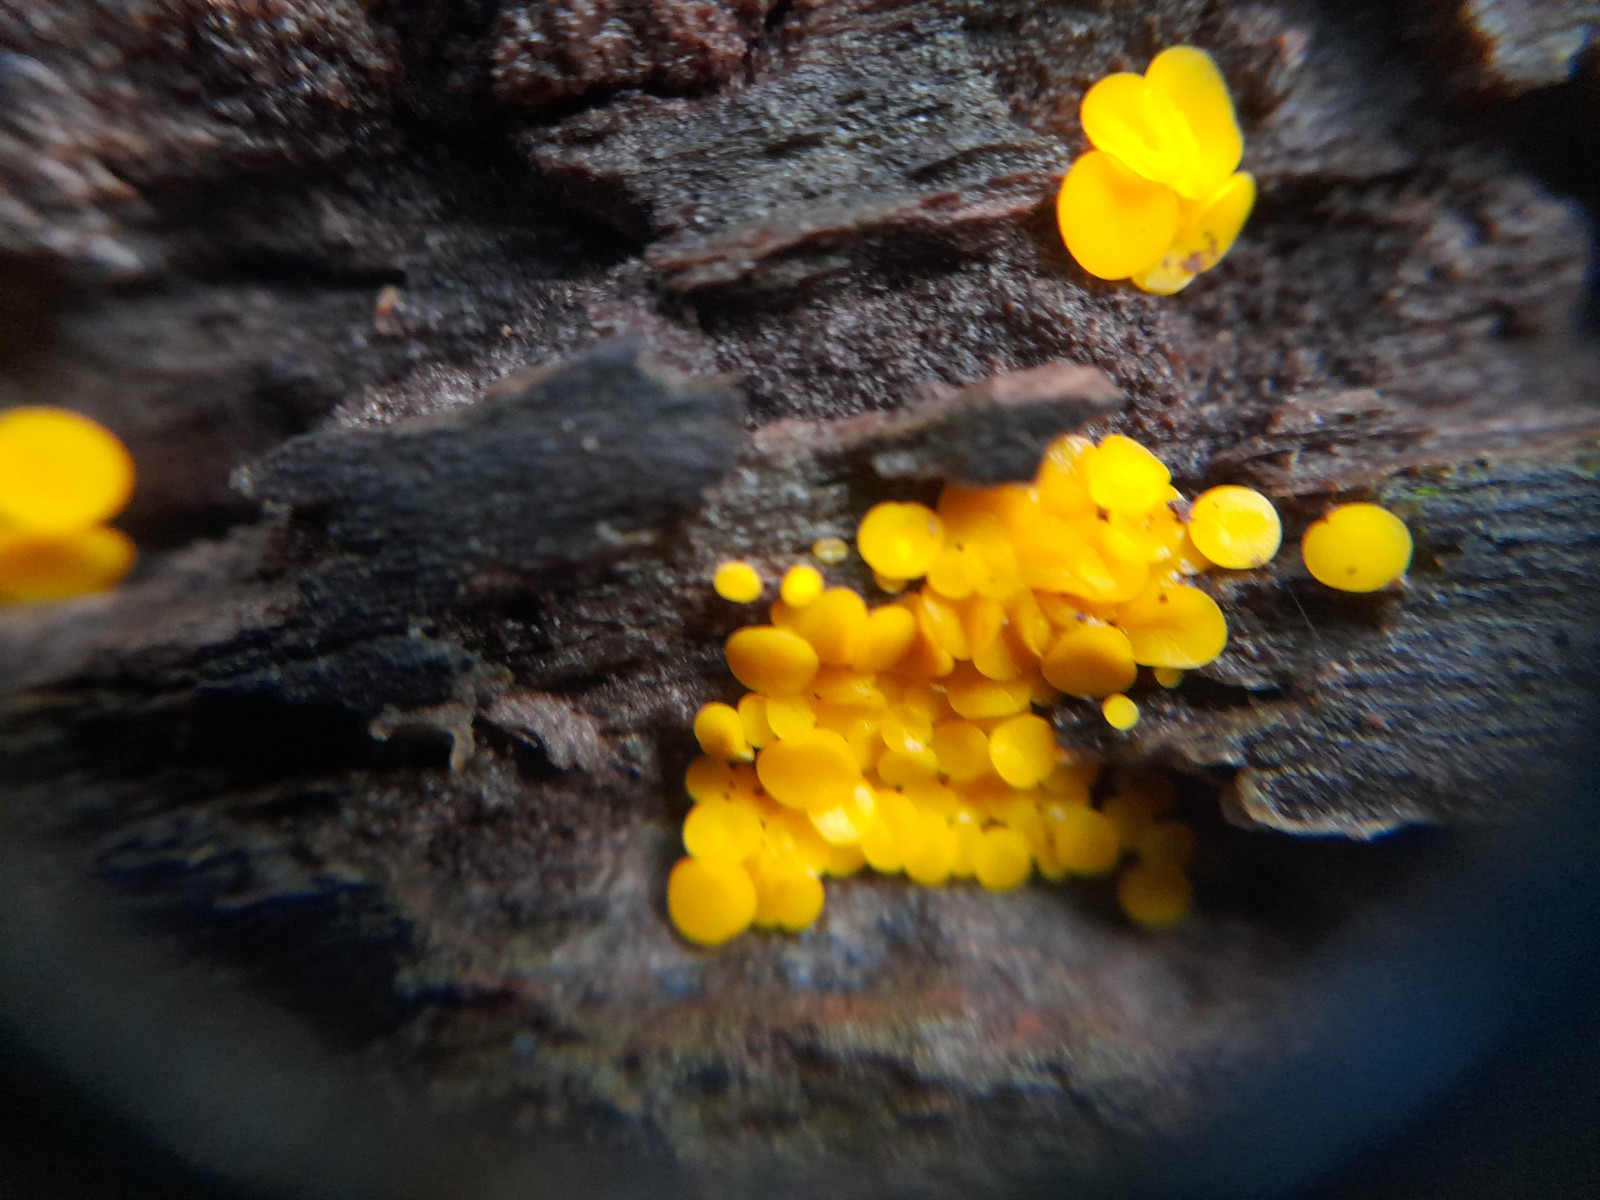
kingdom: Fungi
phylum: Ascomycota
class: Leotiomycetes
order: Helotiales
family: Pezizellaceae
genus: Calycina
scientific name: Calycina citrina
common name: almindelig gulskive
